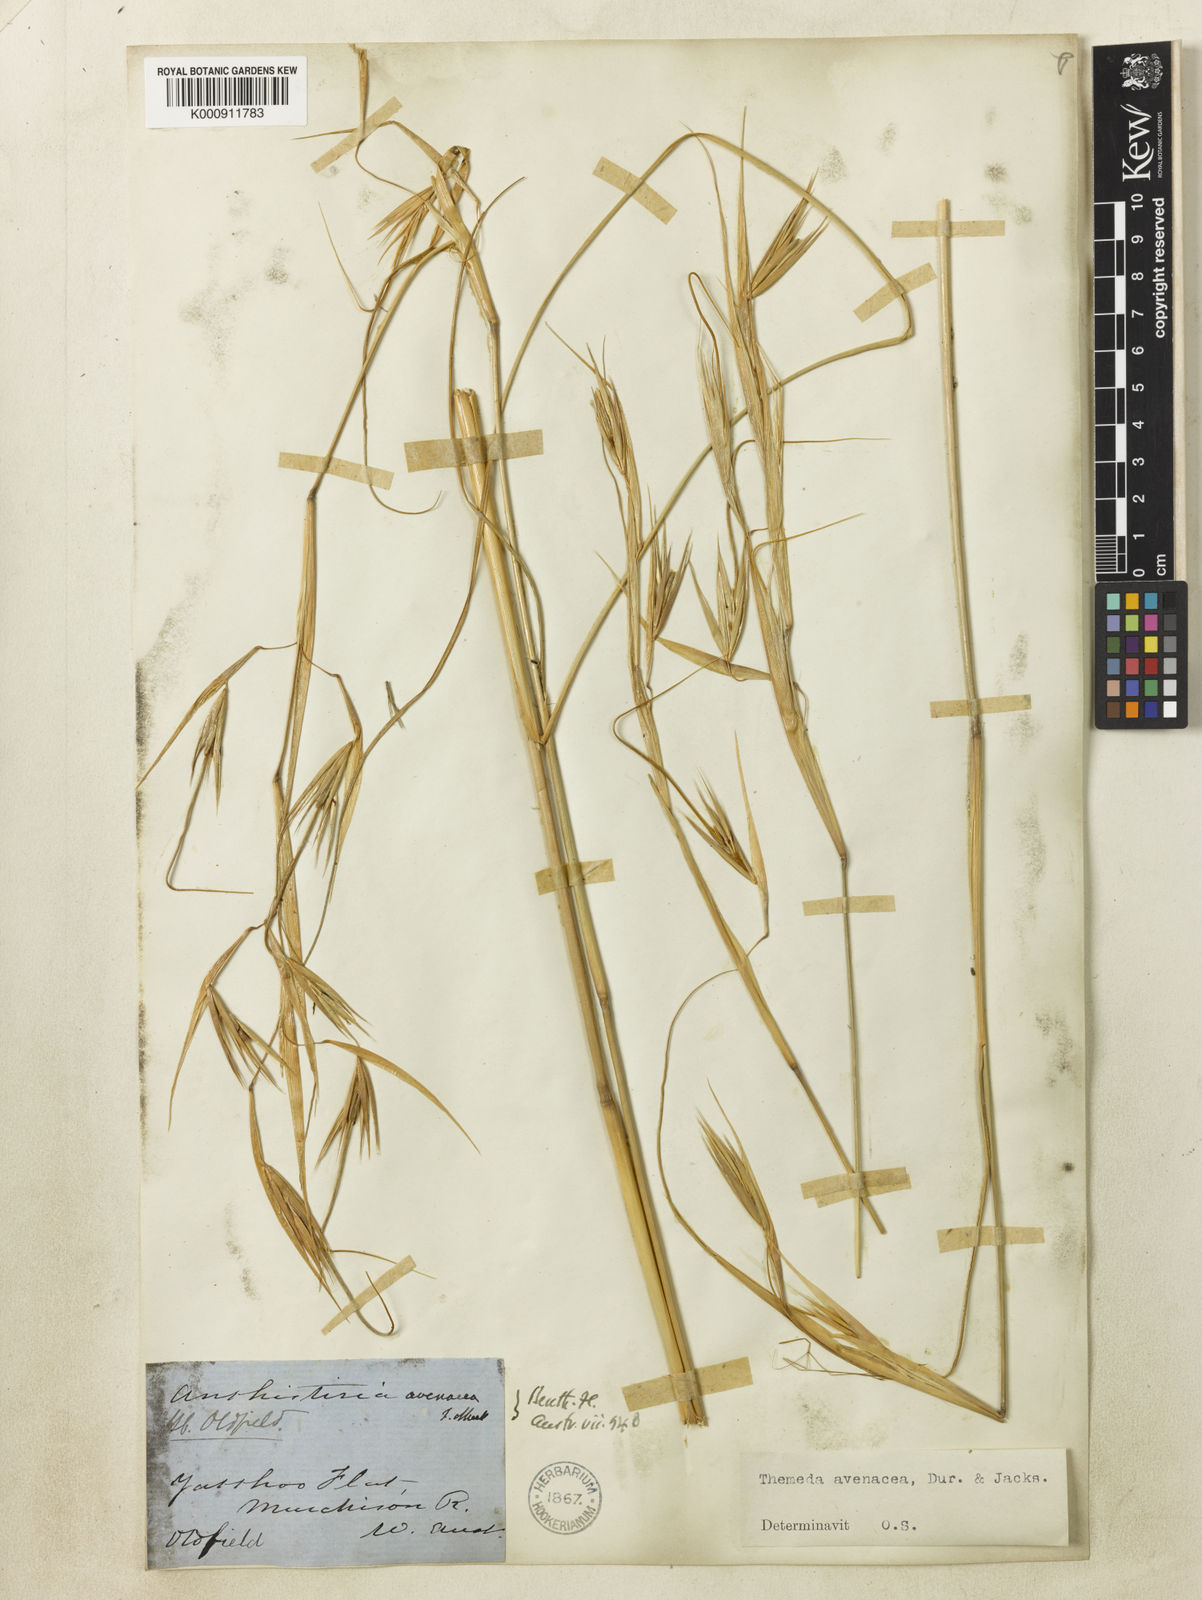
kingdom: Plantae
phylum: Tracheophyta
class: Liliopsida
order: Poales
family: Poaceae
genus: Themeda
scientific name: Themeda avenacea
